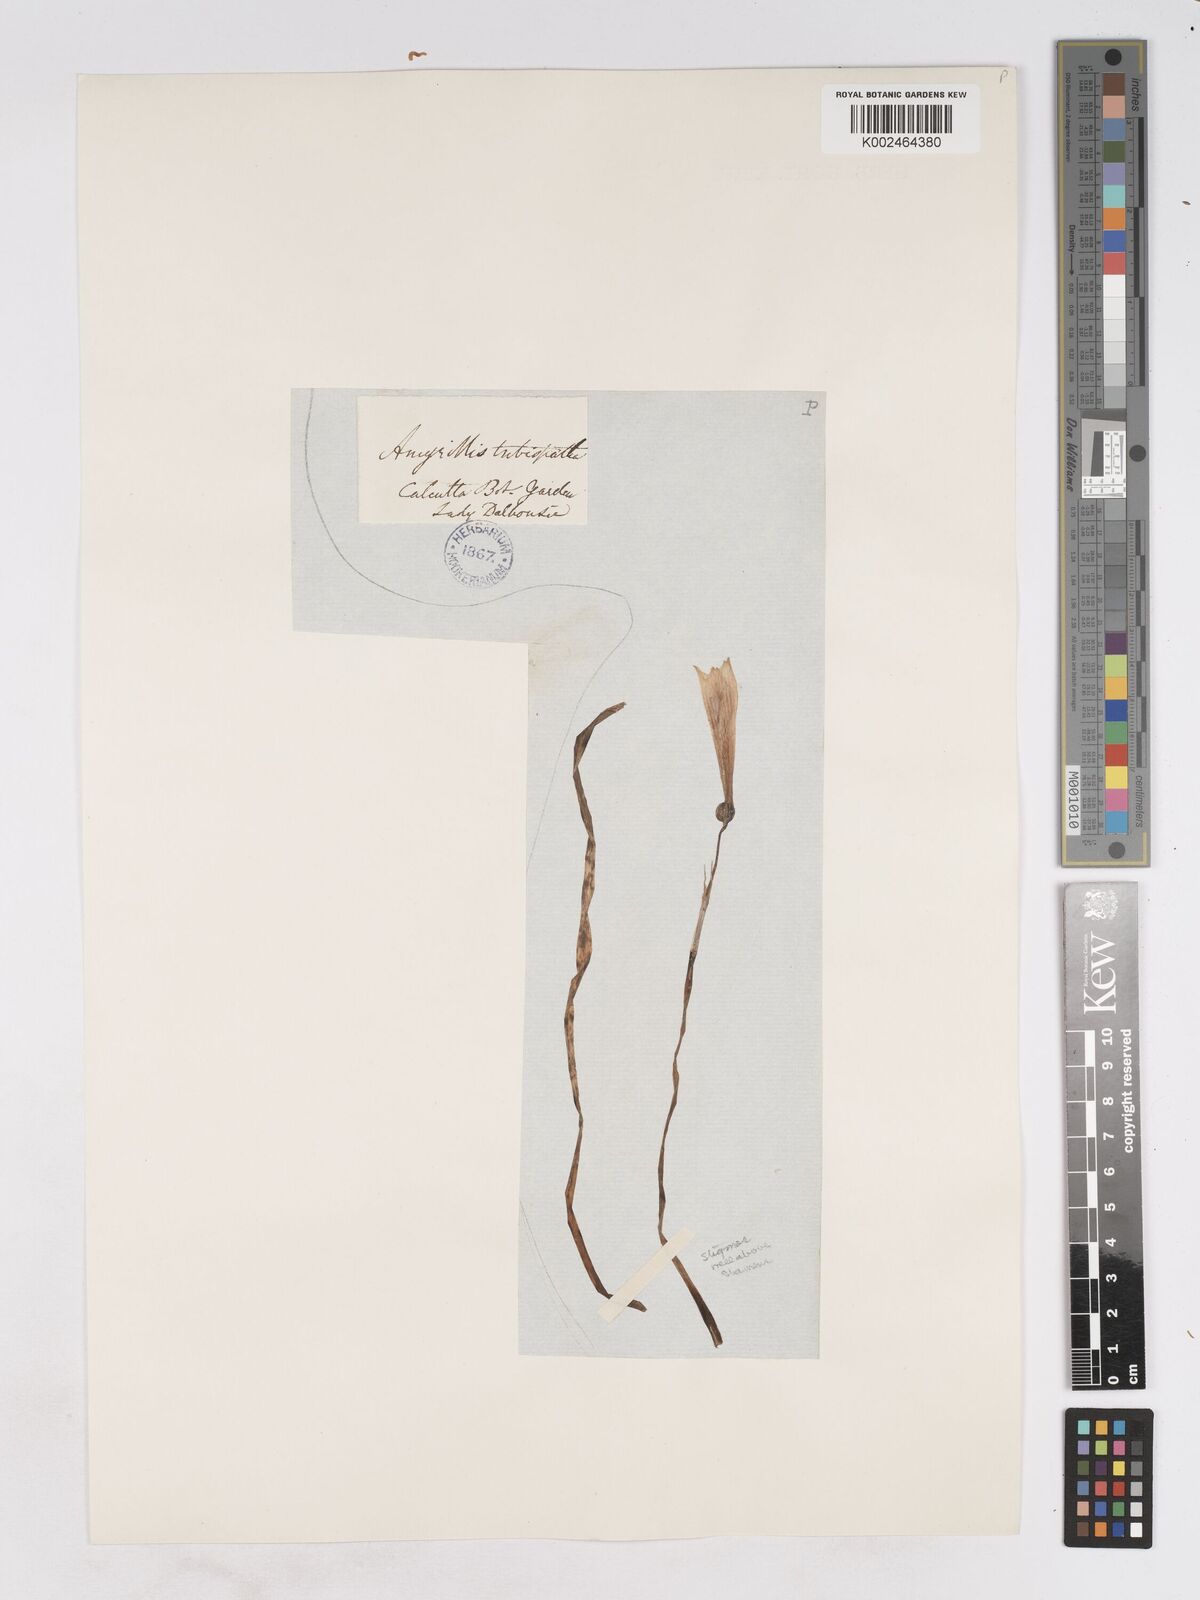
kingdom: Plantae
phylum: Tracheophyta
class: Liliopsida
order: Asparagales
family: Amaryllidaceae
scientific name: Amaryllidaceae
